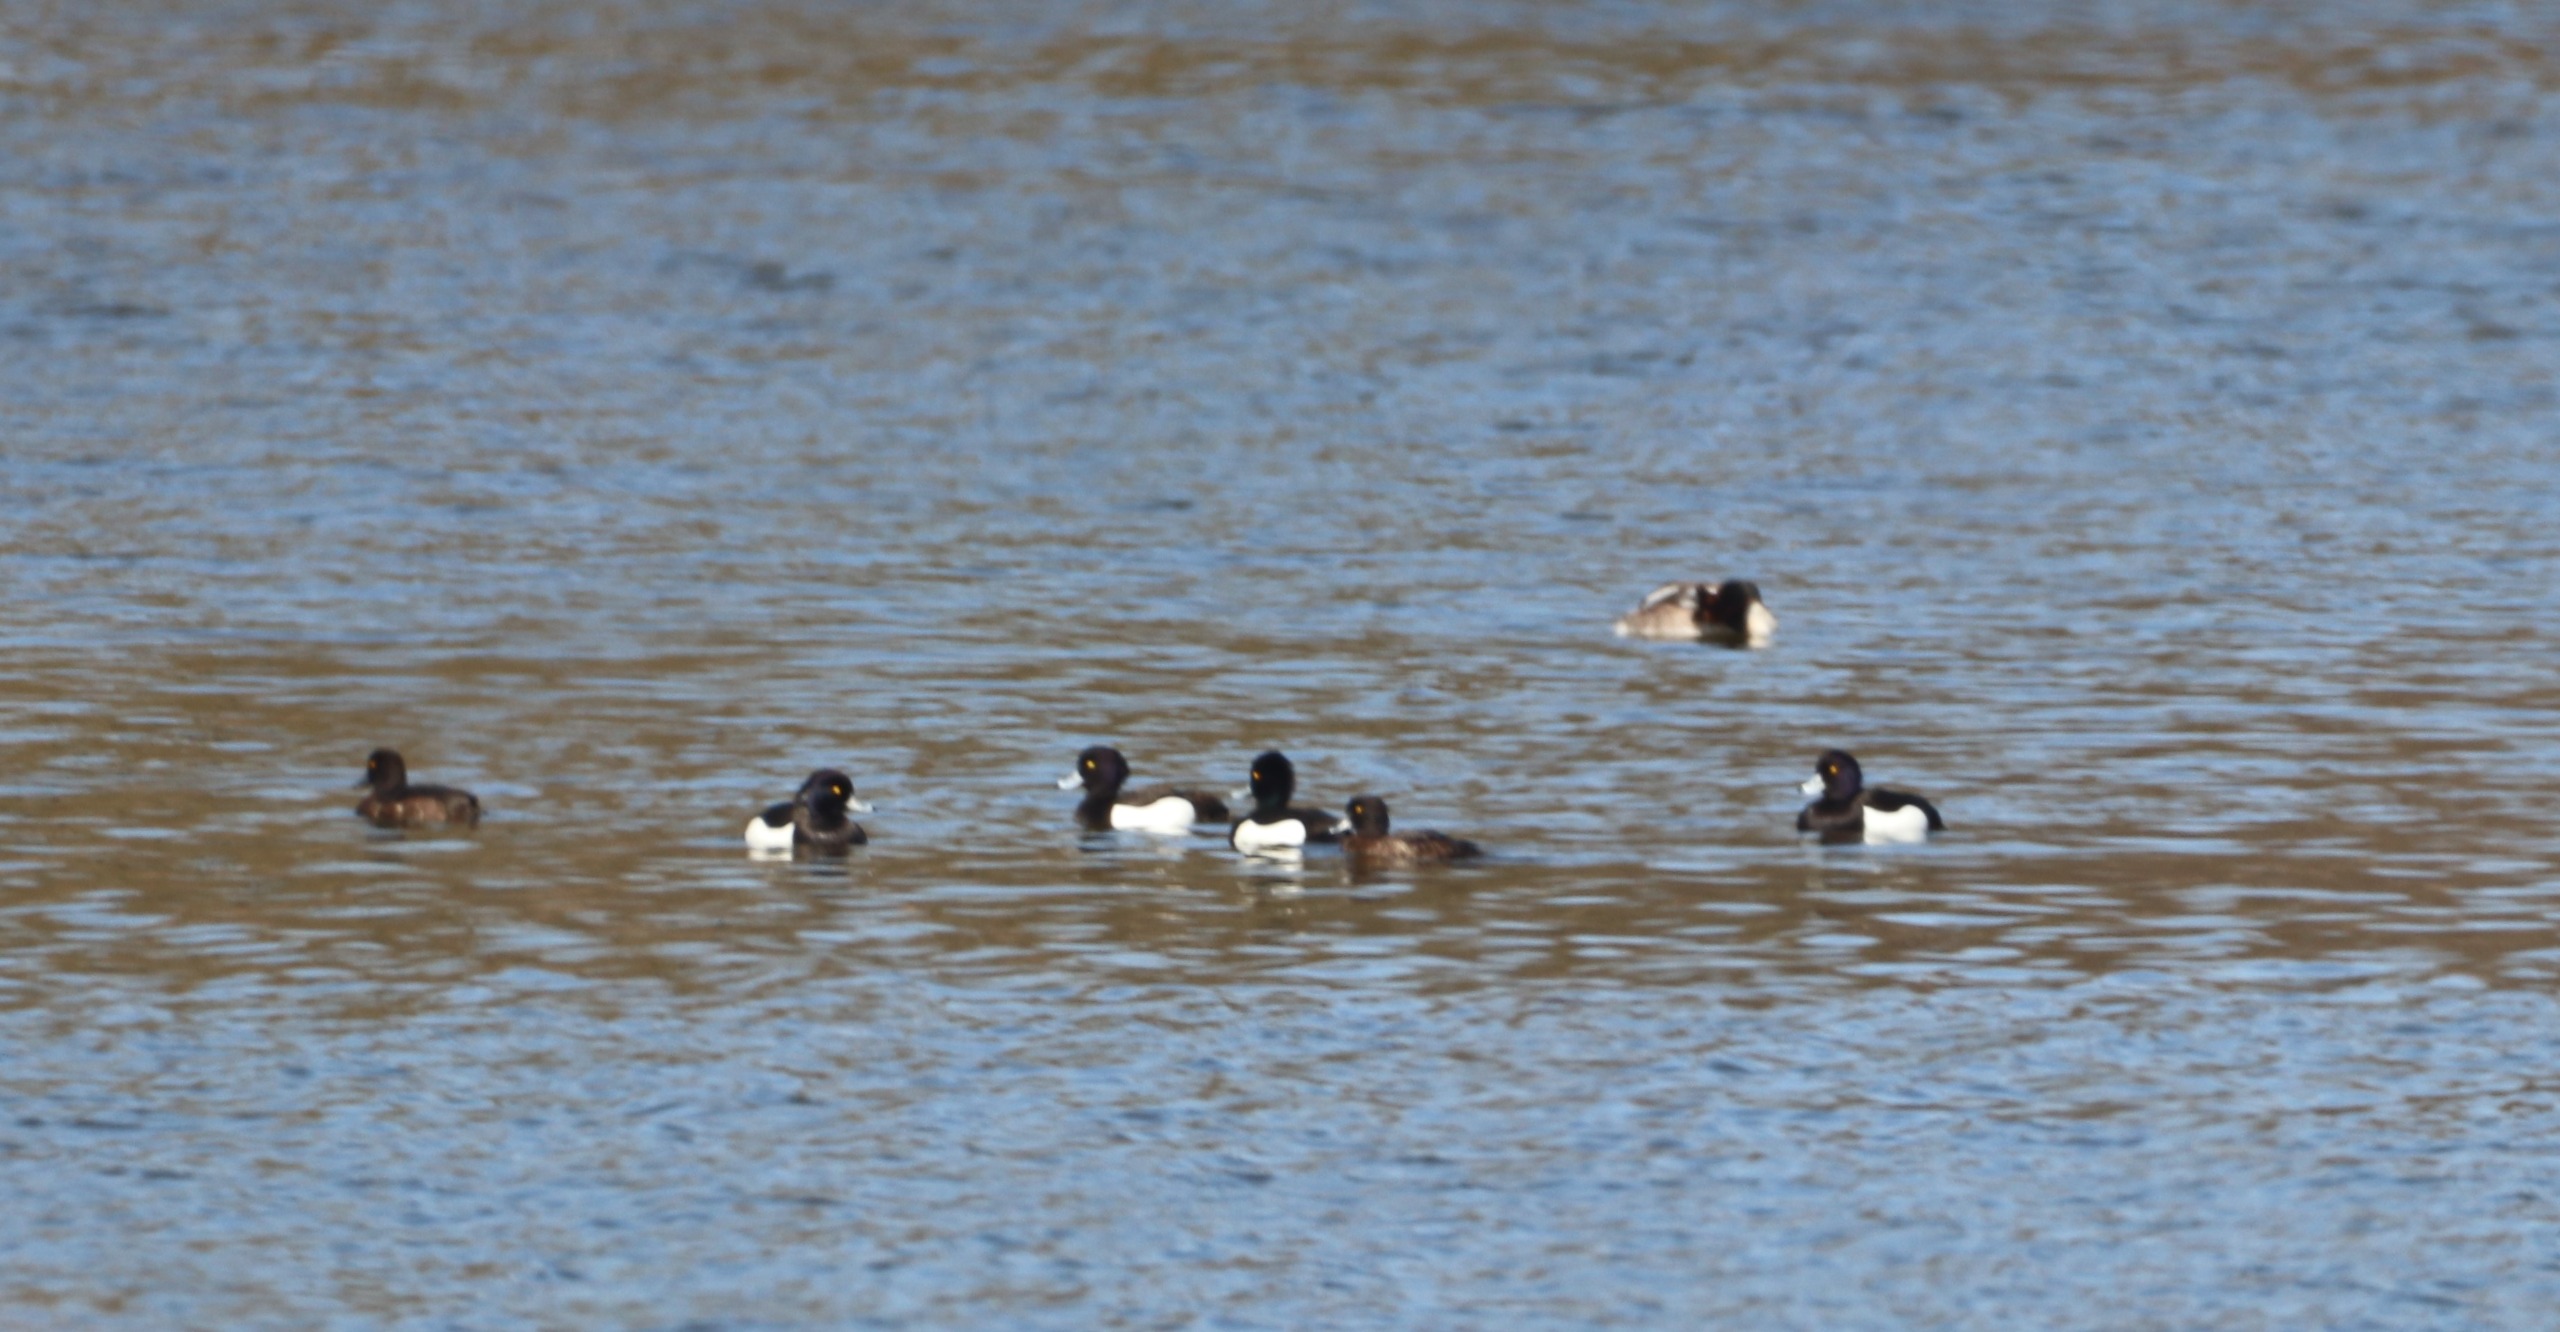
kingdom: Animalia
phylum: Chordata
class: Aves
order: Anseriformes
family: Anatidae
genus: Aythya
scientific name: Aythya fuligula
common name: Troldand
